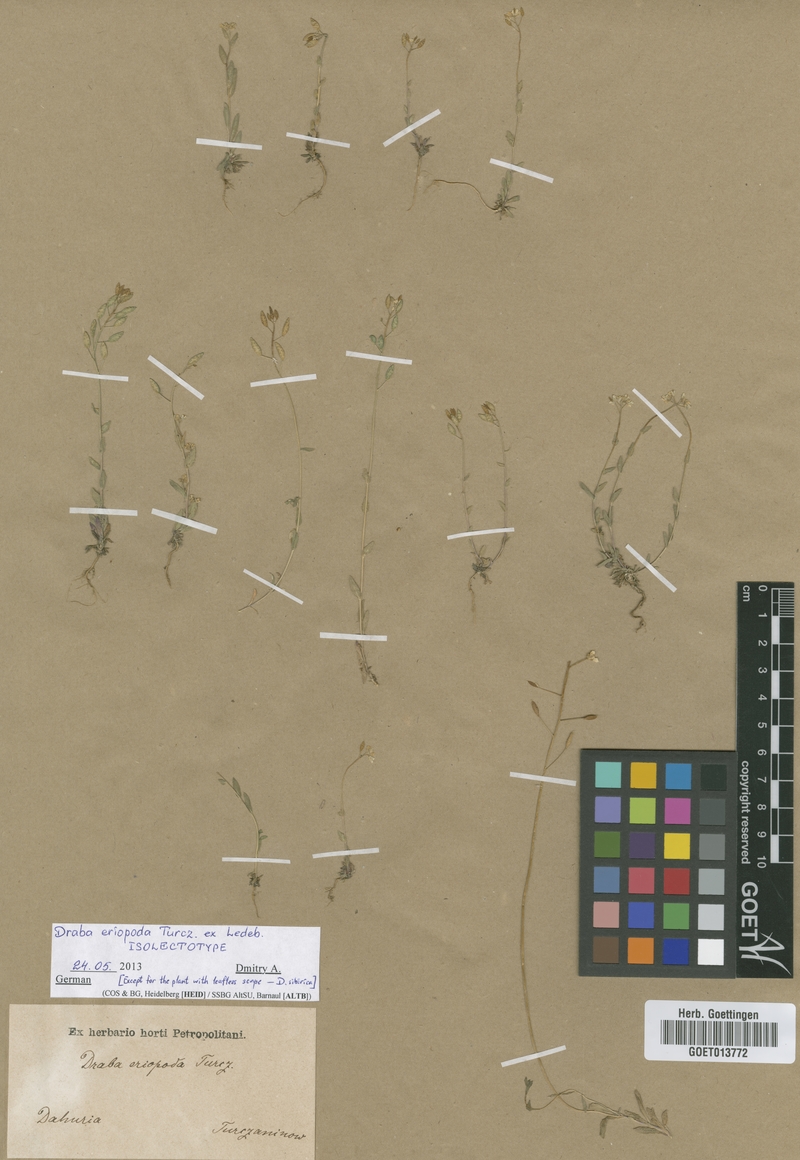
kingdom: Plantae
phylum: Tracheophyta
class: Magnoliopsida
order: Brassicales
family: Brassicaceae
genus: Draba
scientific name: Draba eriopoda
